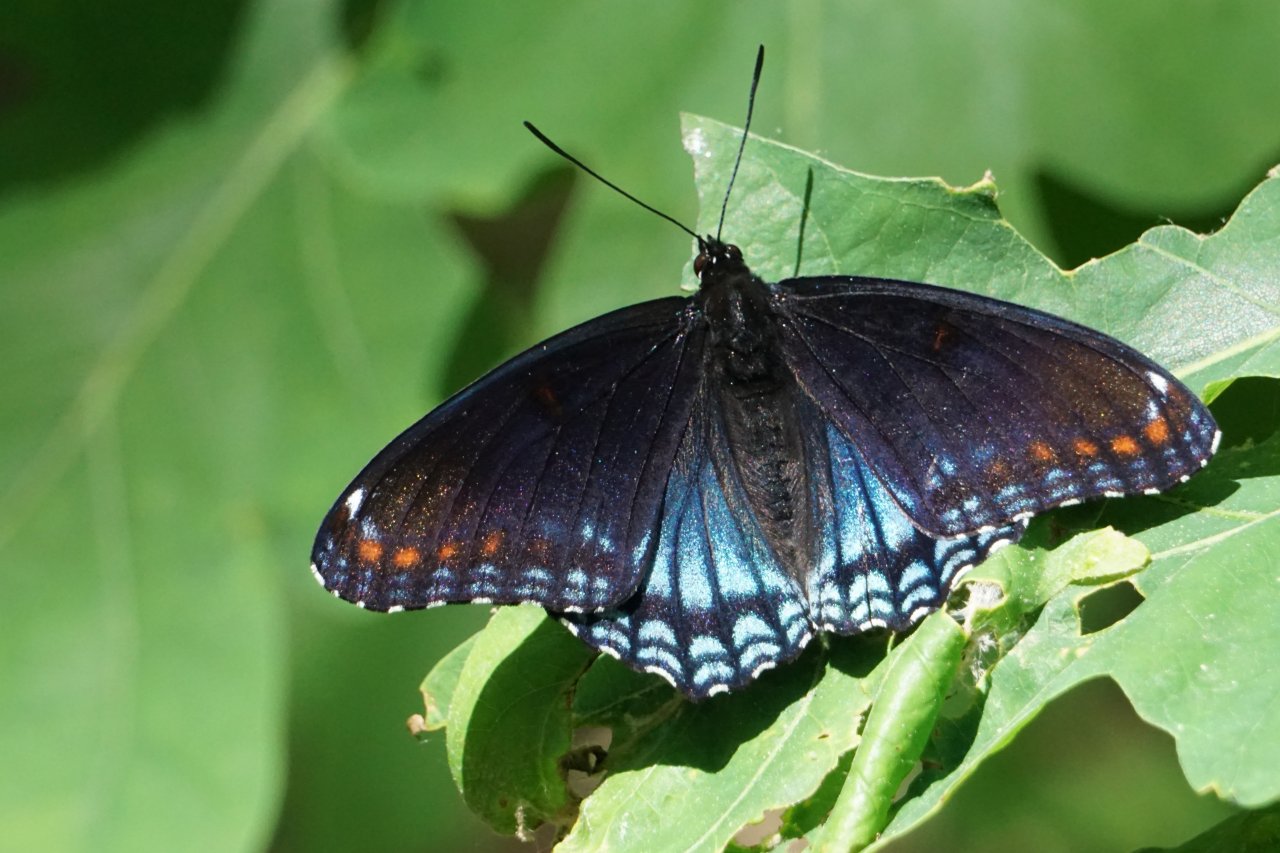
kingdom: Animalia
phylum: Arthropoda
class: Insecta
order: Lepidoptera
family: Nymphalidae
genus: Limenitis
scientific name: Limenitis astyanax
